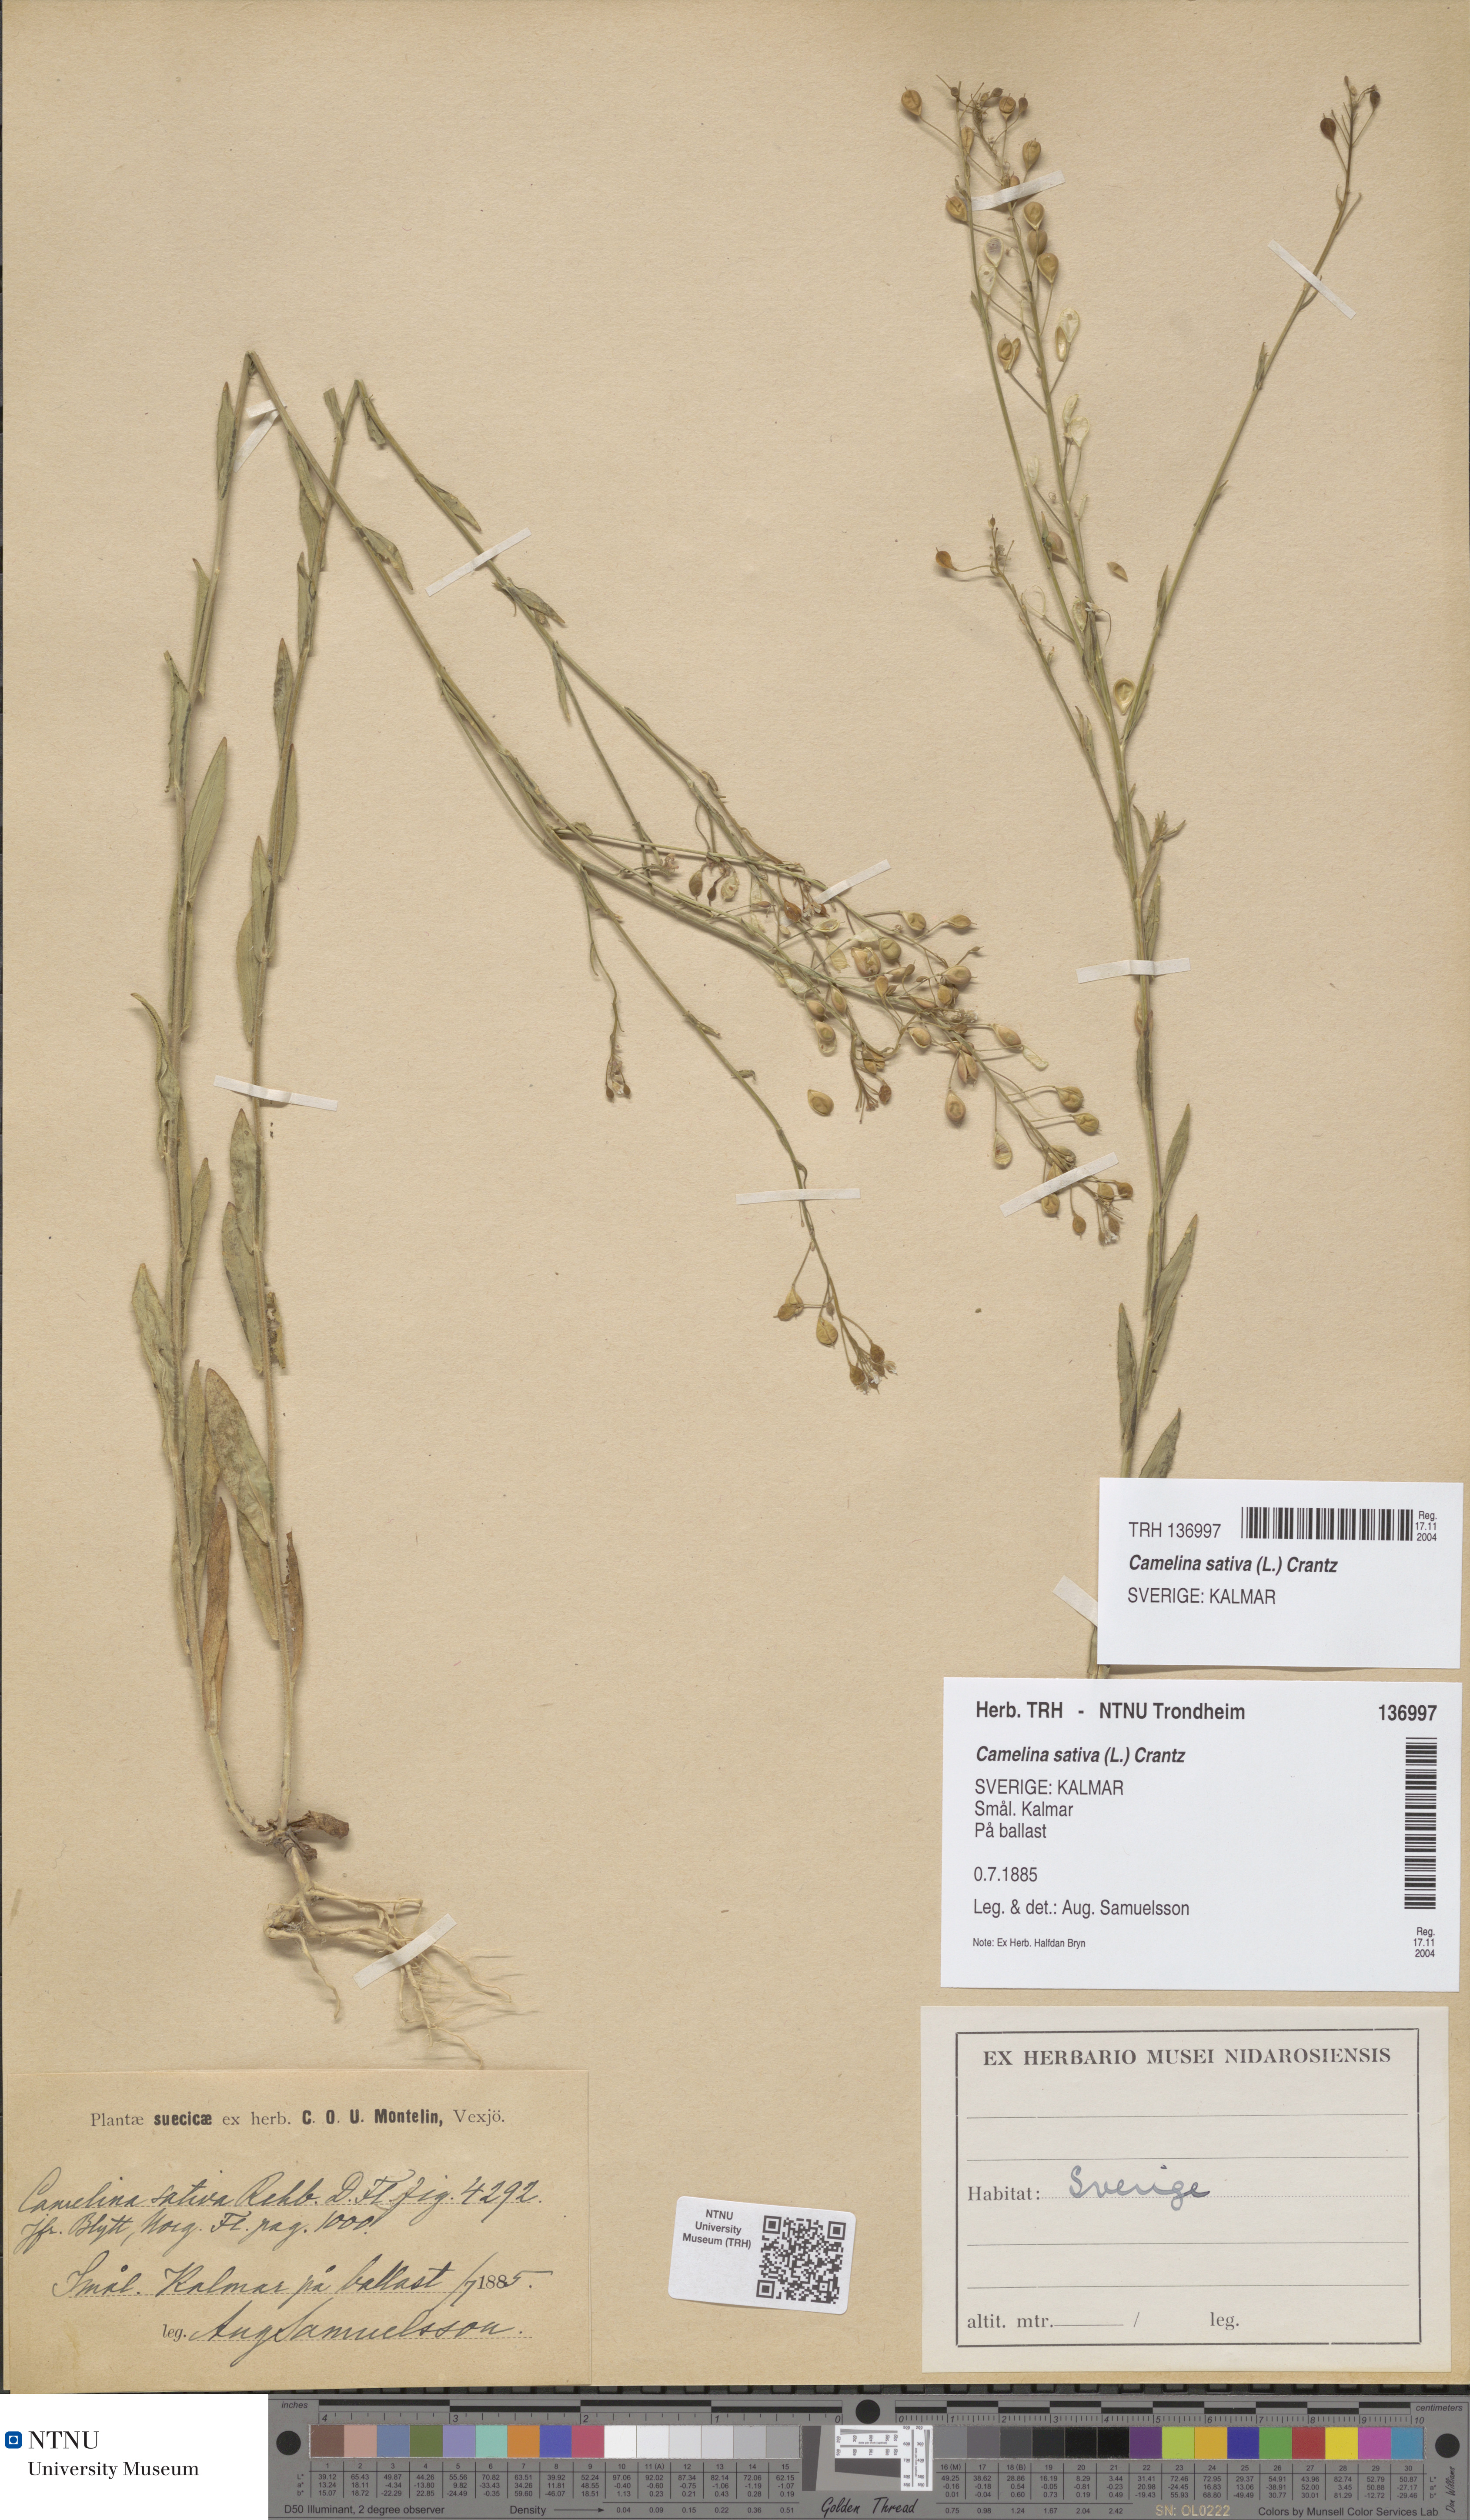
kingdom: Plantae
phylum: Tracheophyta
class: Magnoliopsida
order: Brassicales
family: Brassicaceae
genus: Camelina
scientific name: Camelina sativa
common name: Gold-of-pleasure
